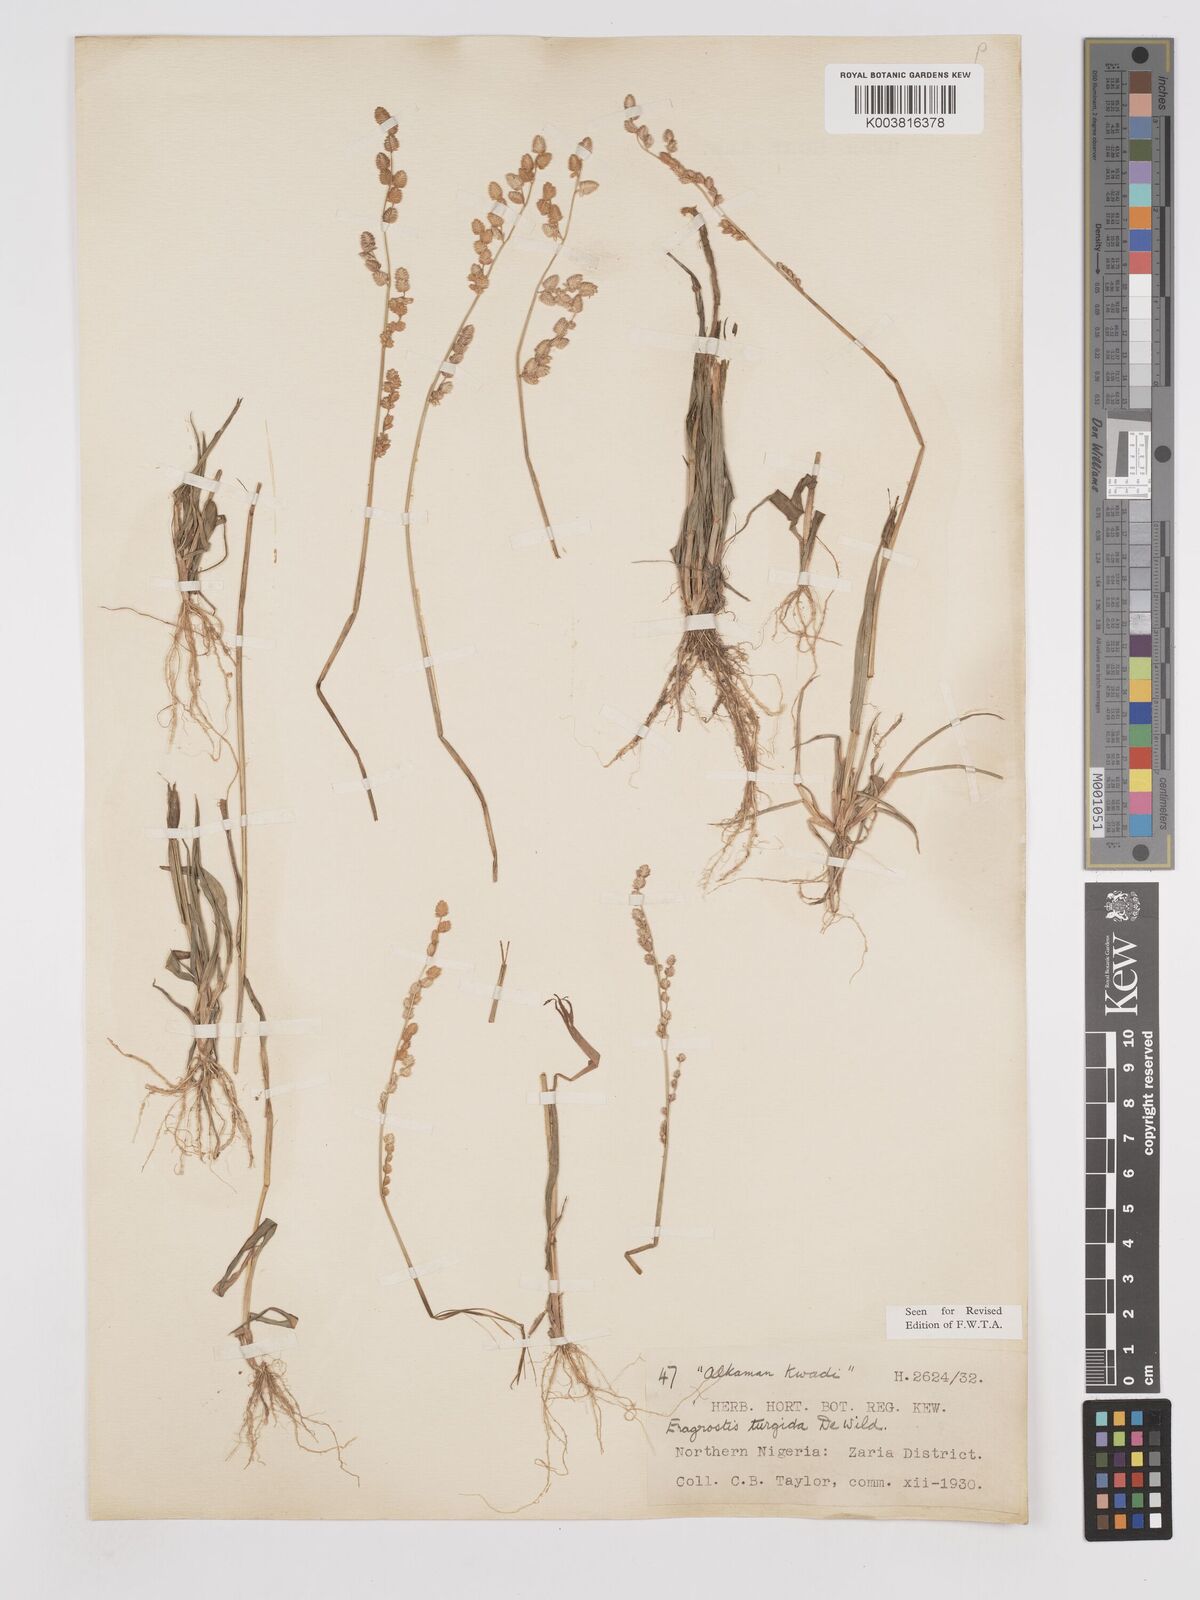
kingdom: Plantae
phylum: Tracheophyta
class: Liliopsida
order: Poales
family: Poaceae
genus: Eragrostis
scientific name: Eragrostis turgida
